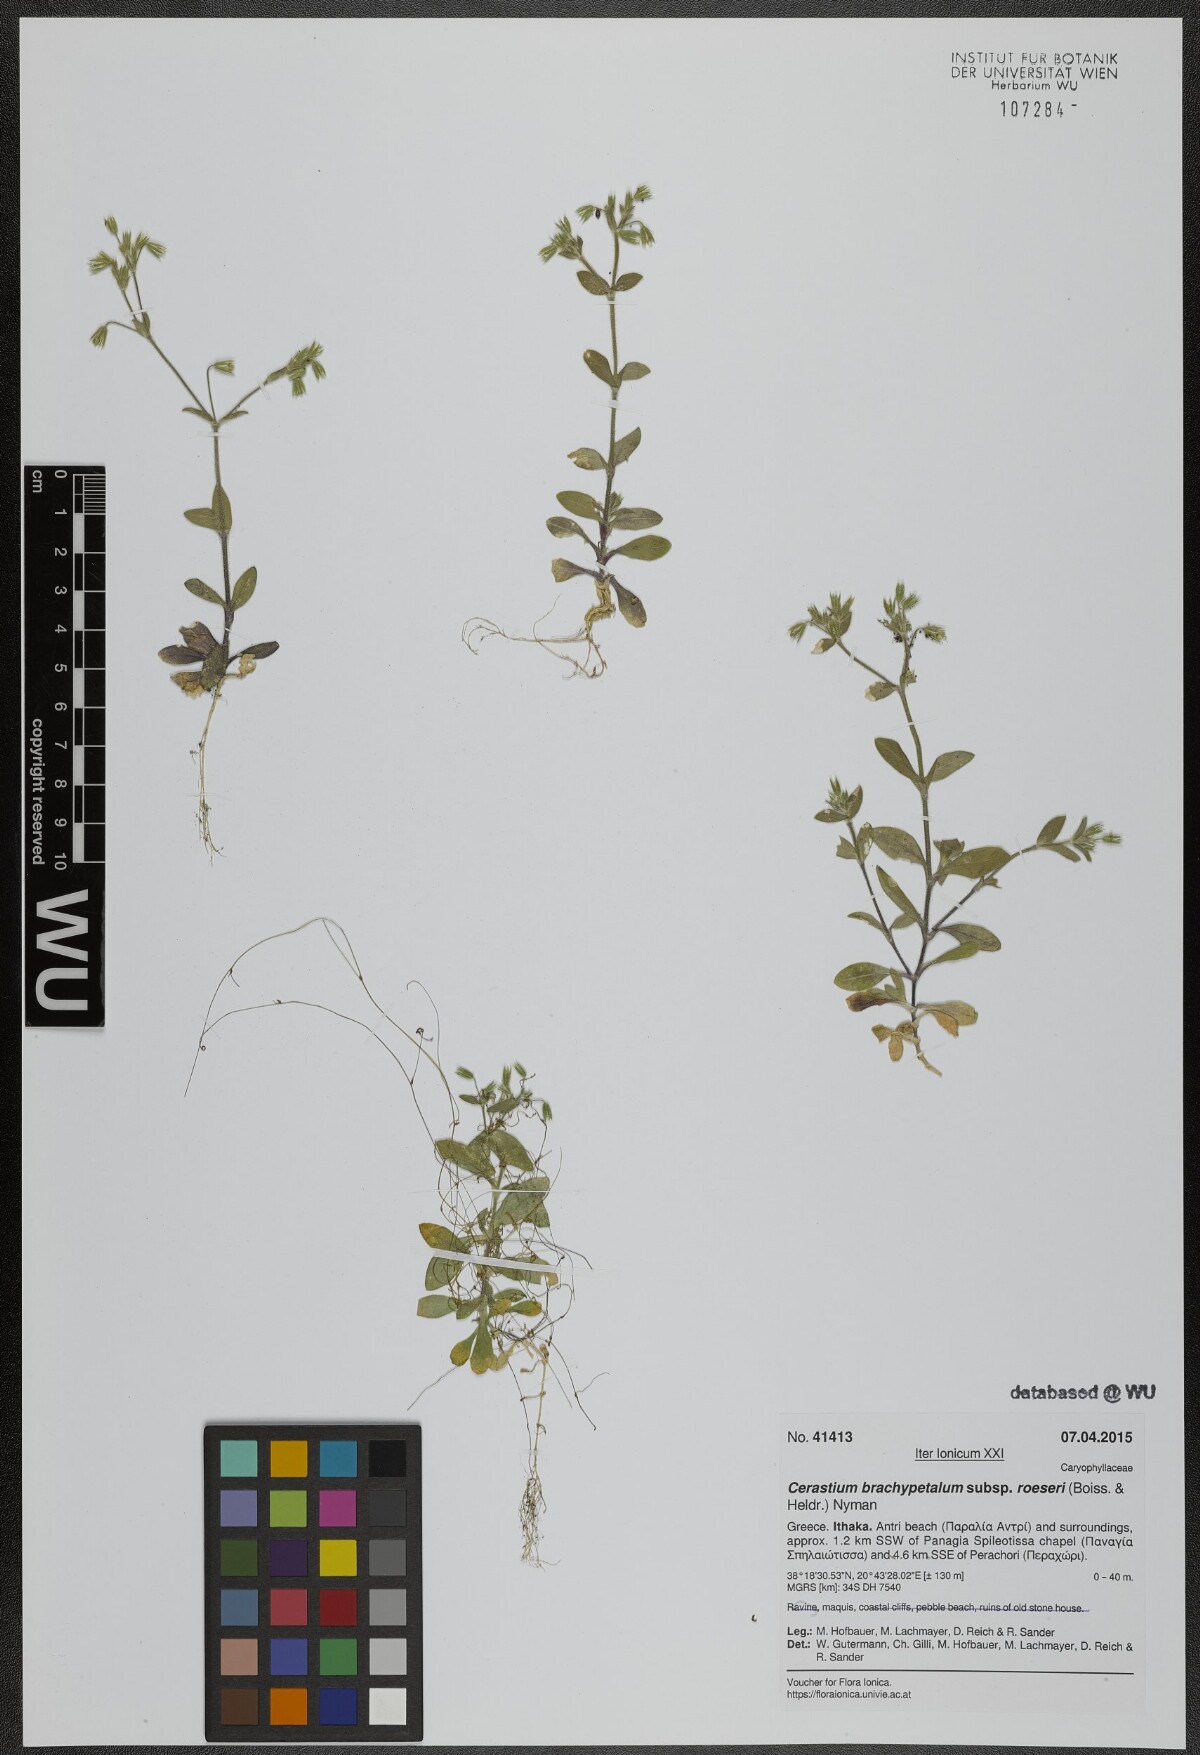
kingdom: Plantae
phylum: Tracheophyta
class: Magnoliopsida
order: Caryophyllales
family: Caryophyllaceae
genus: Cerastium
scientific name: Cerastium brachypetalum
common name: Grey mouse-ear
